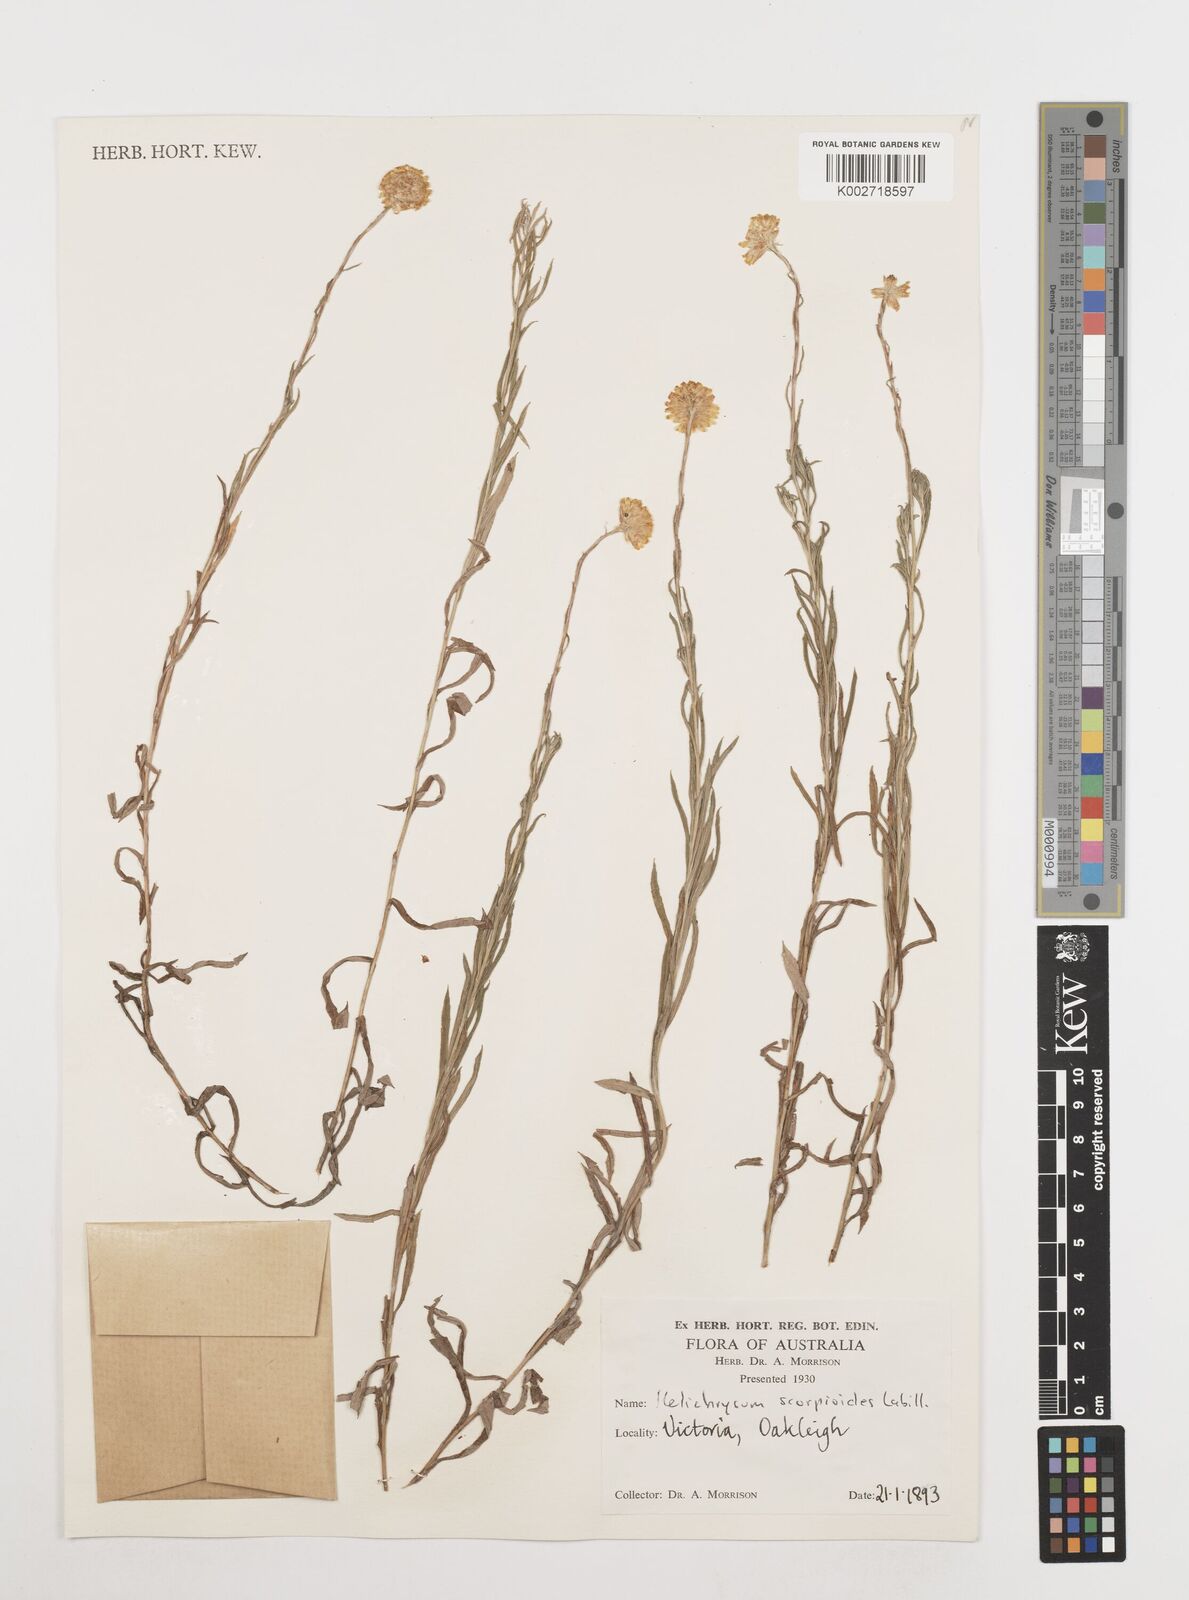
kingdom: Plantae
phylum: Tracheophyta
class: Magnoliopsida
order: Asterales
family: Asteraceae
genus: Coronidium
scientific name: Coronidium scorpioides
